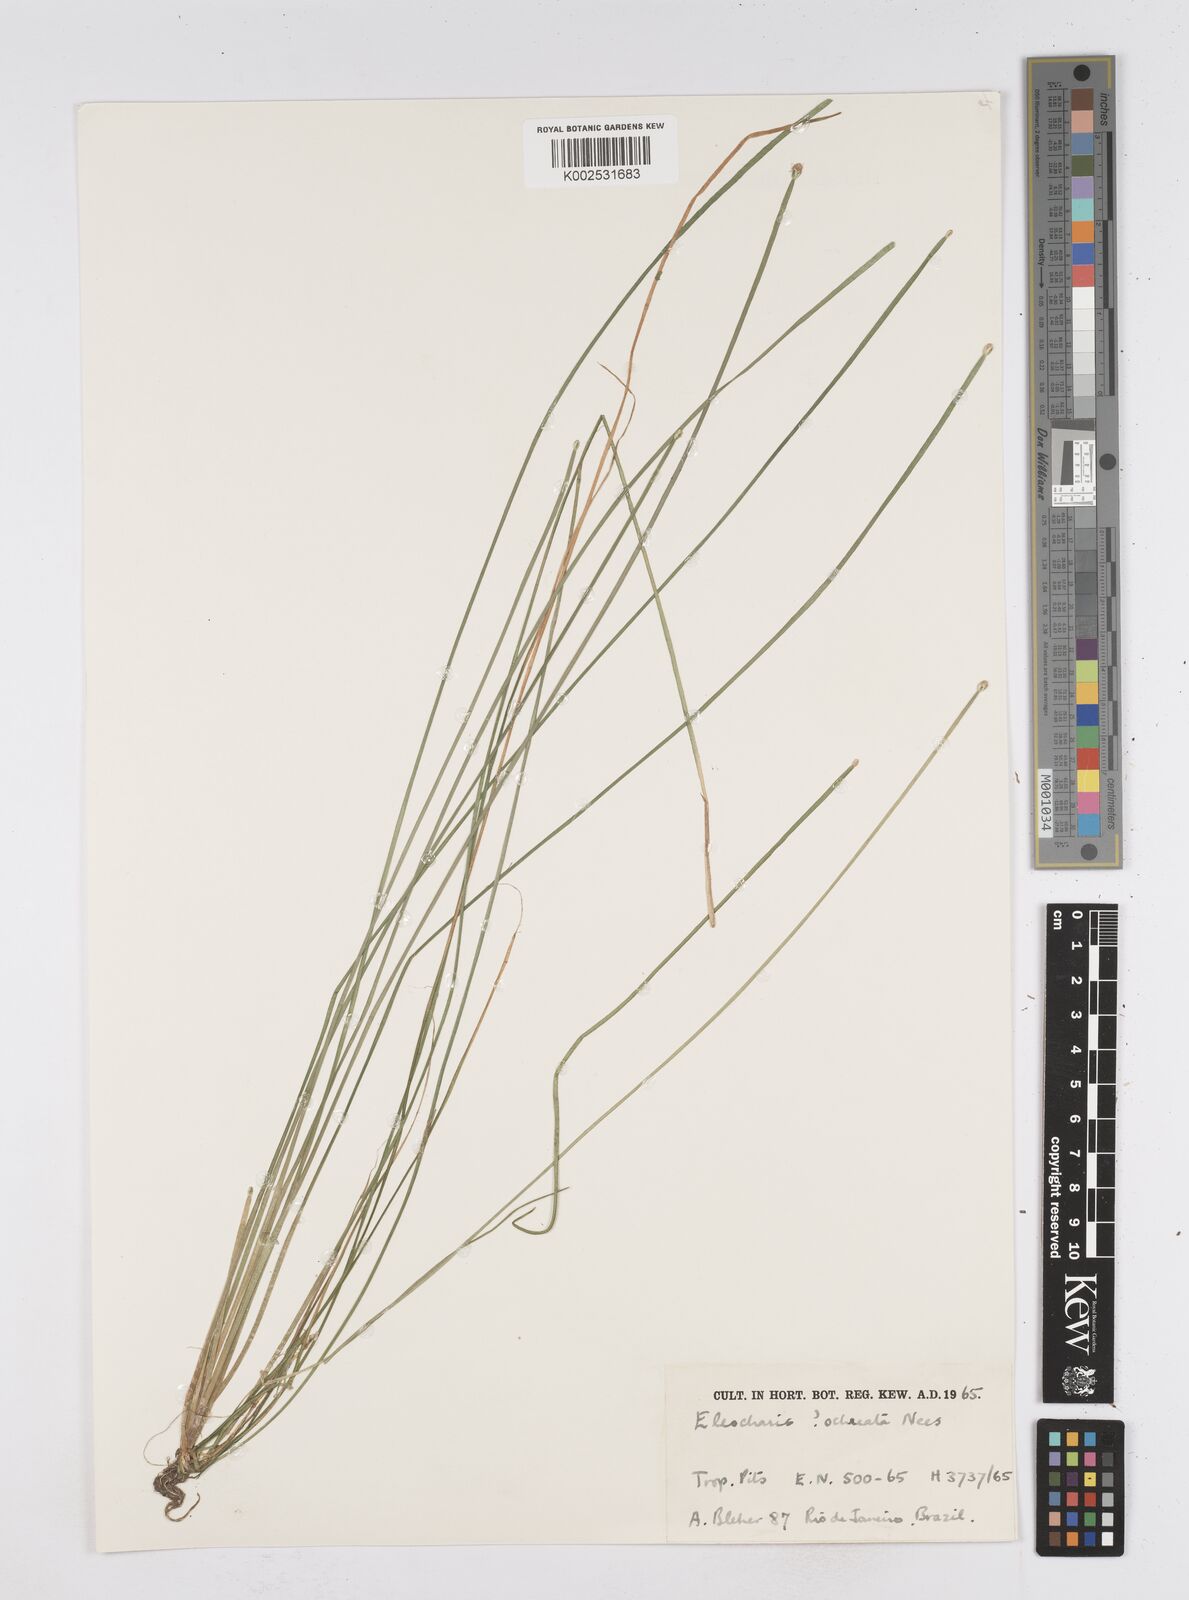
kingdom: Plantae
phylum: Tracheophyta
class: Liliopsida
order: Poales
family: Cyperaceae
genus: Eleocharis
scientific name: Eleocharis
